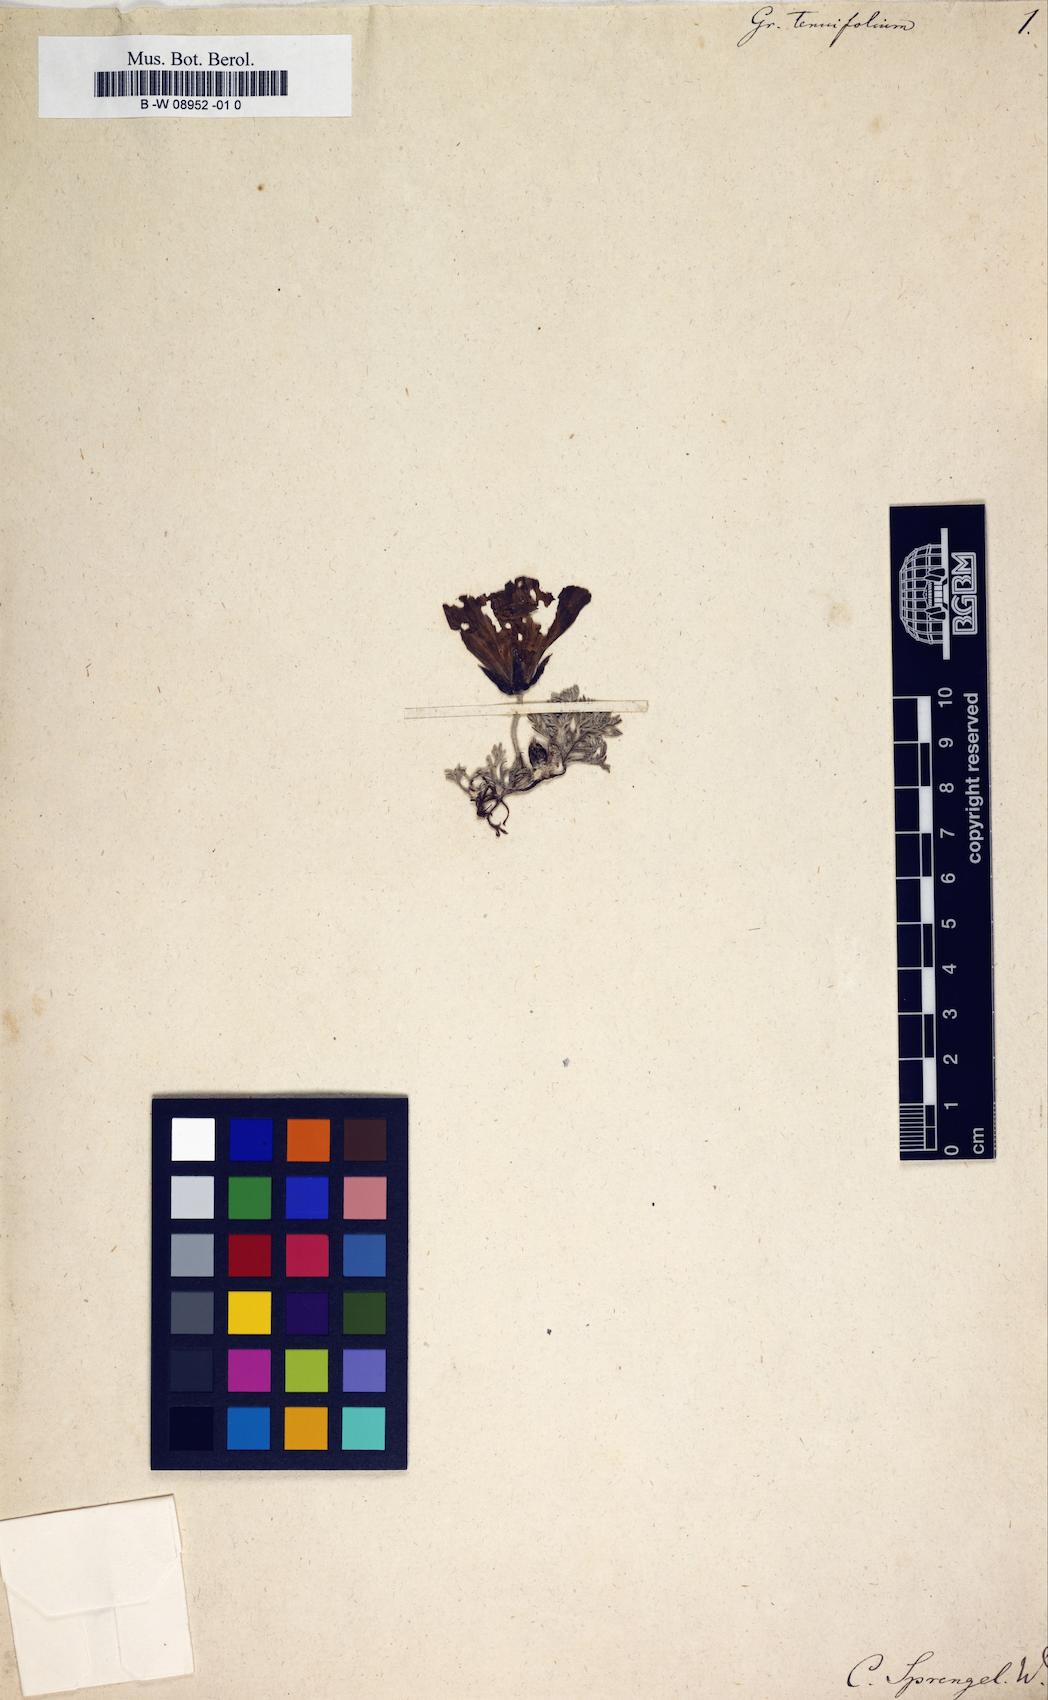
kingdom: Plantae
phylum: Tracheophyta
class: Magnoliopsida
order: Malvales
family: Neuradaceae
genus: Grielum
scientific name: Grielum grandiflorum
